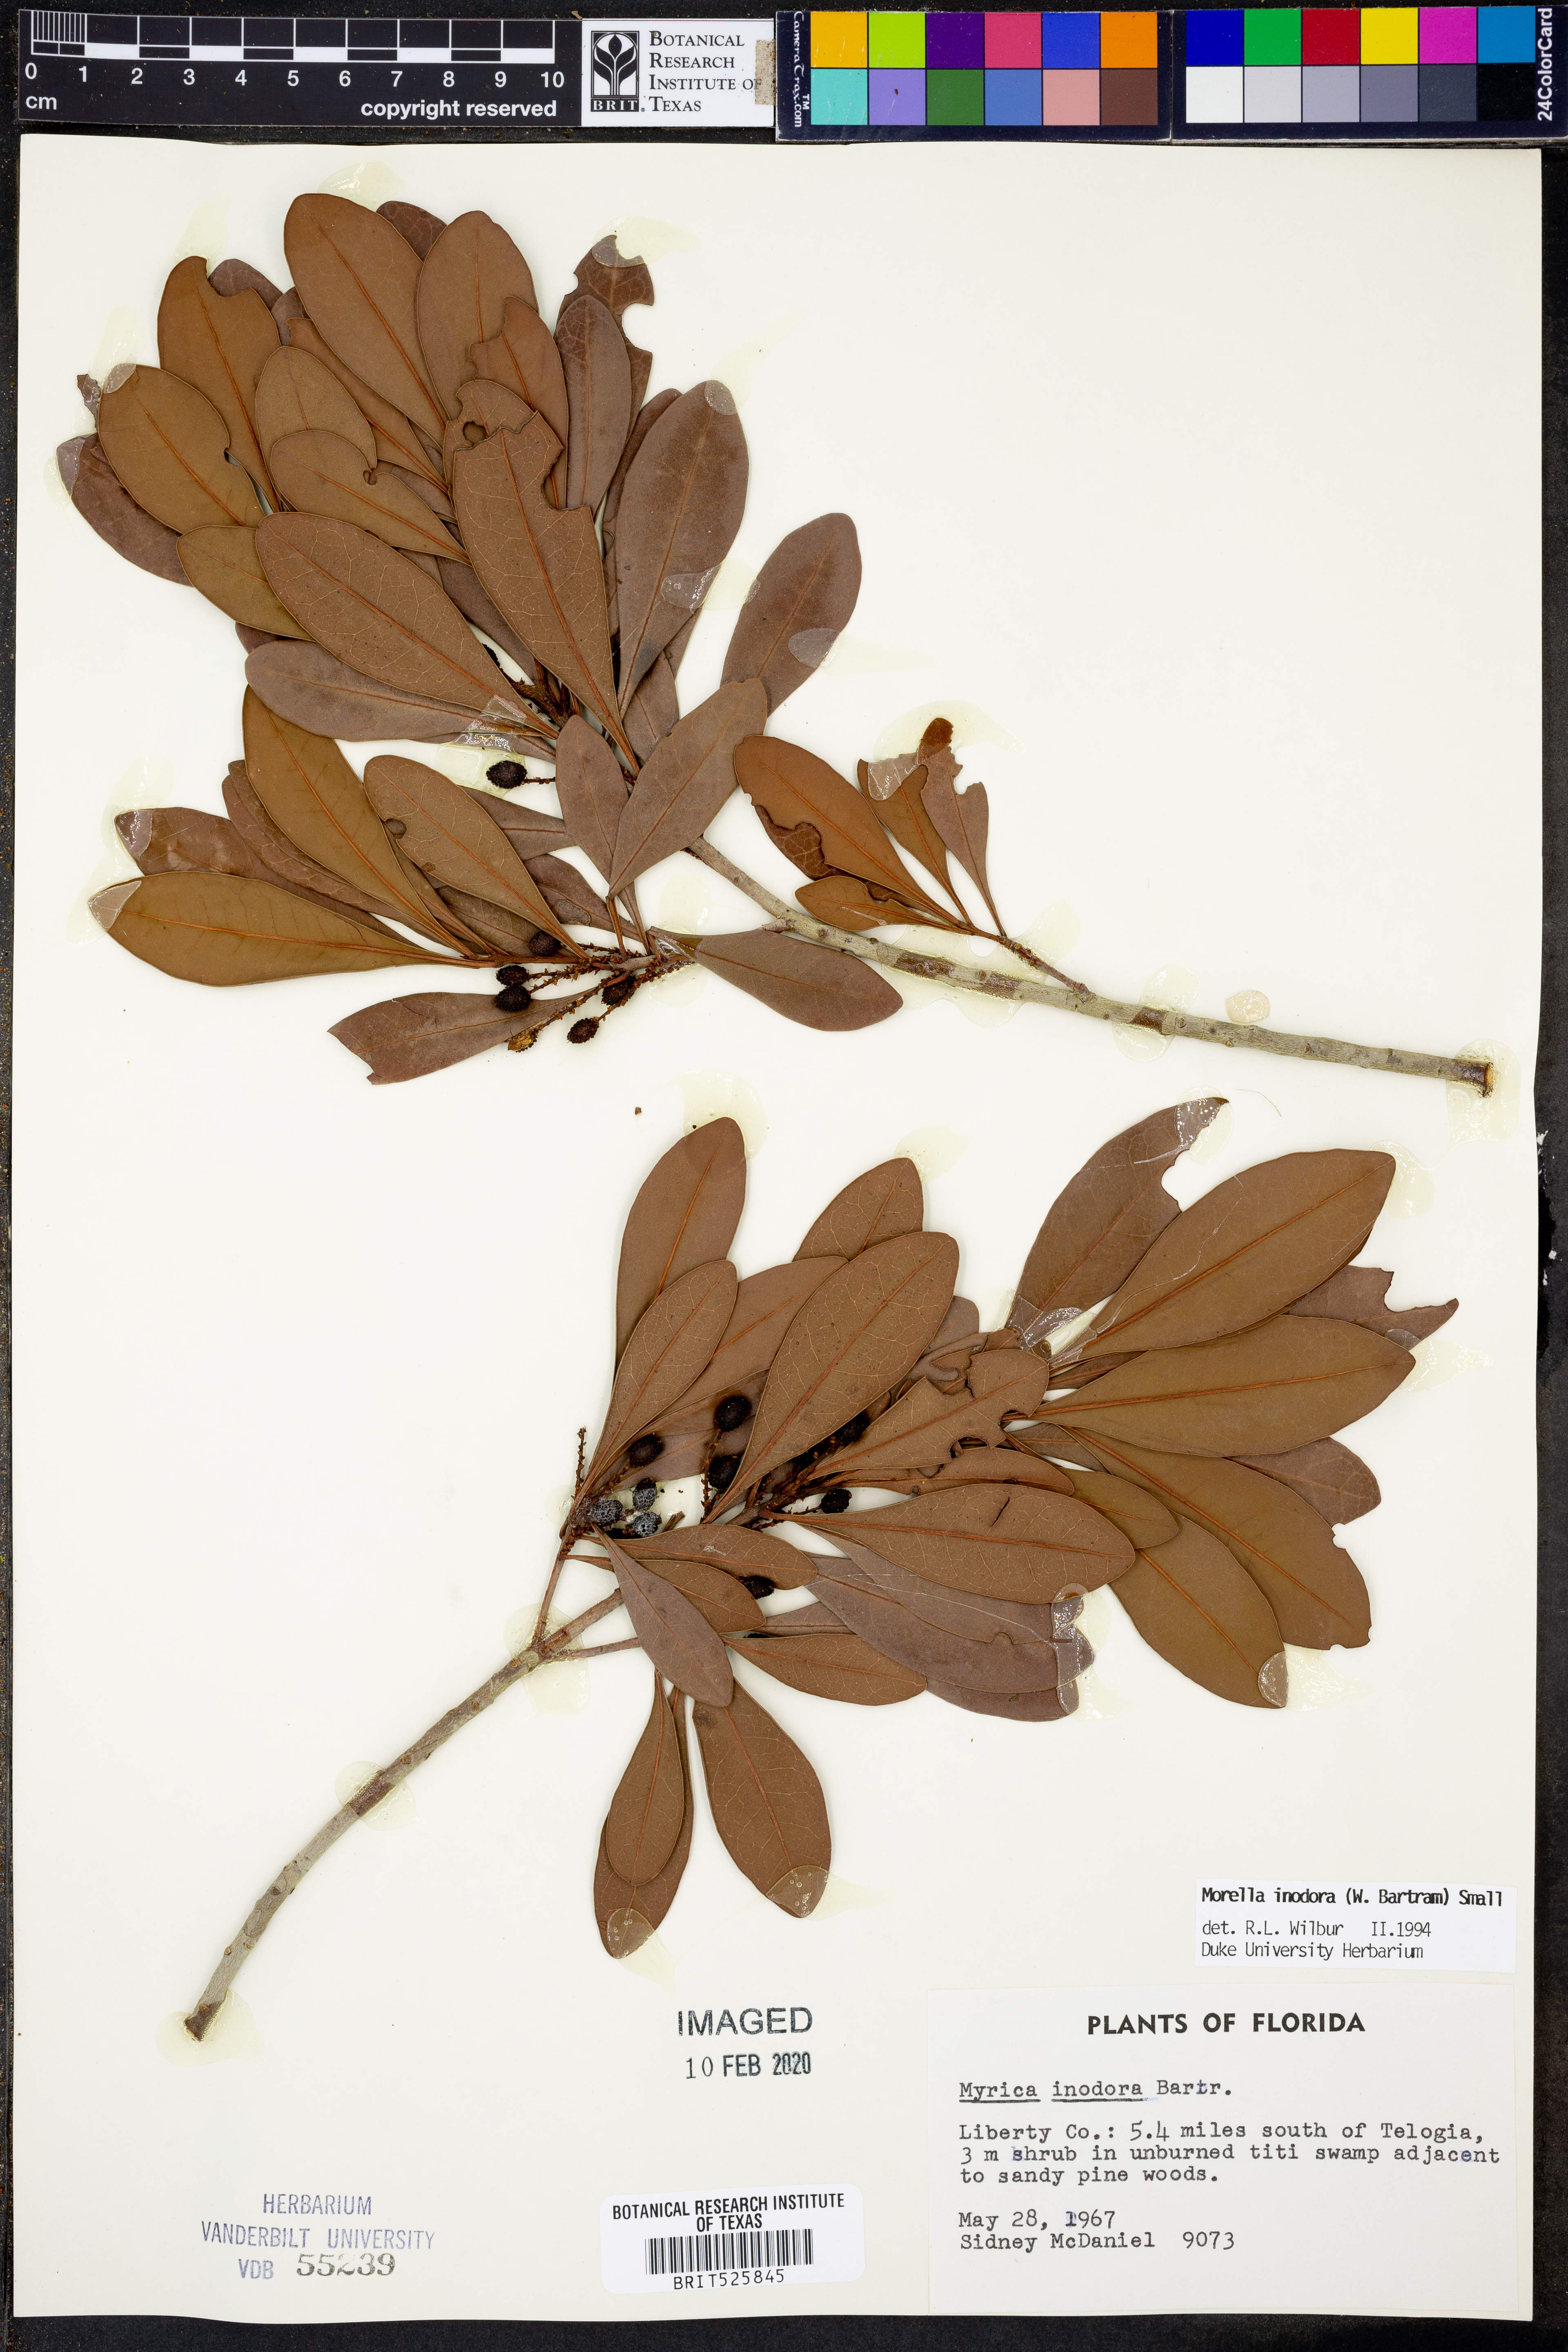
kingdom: Plantae
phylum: Tracheophyta
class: Magnoliopsida
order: Fagales
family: Myricaceae
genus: Morella
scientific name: Morella inodora
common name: Candle-berry
